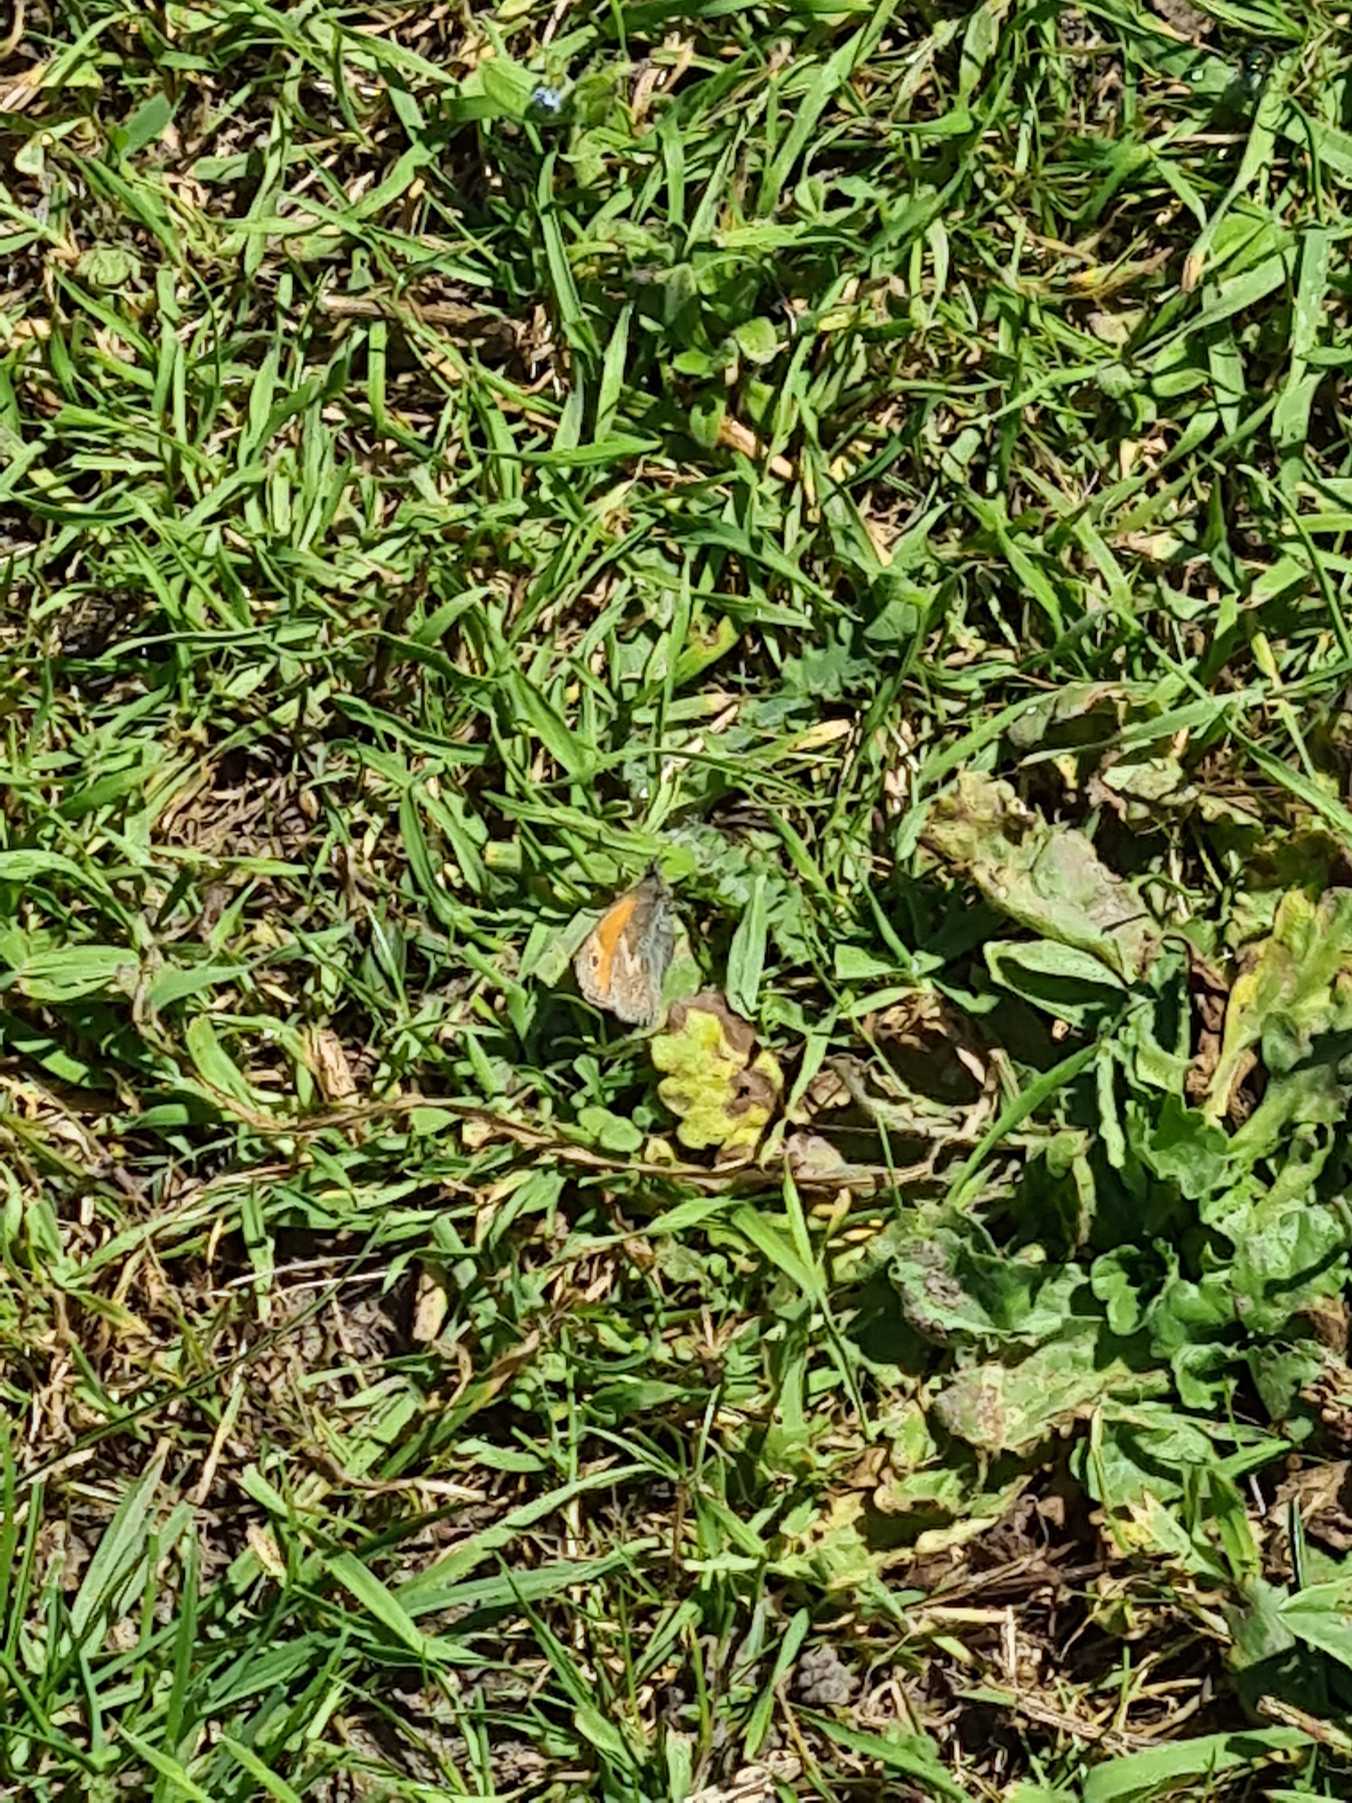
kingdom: Animalia
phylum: Arthropoda
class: Insecta
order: Lepidoptera
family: Nymphalidae
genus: Coenonympha
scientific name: Coenonympha pamphilus
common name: Okkergul randøje
